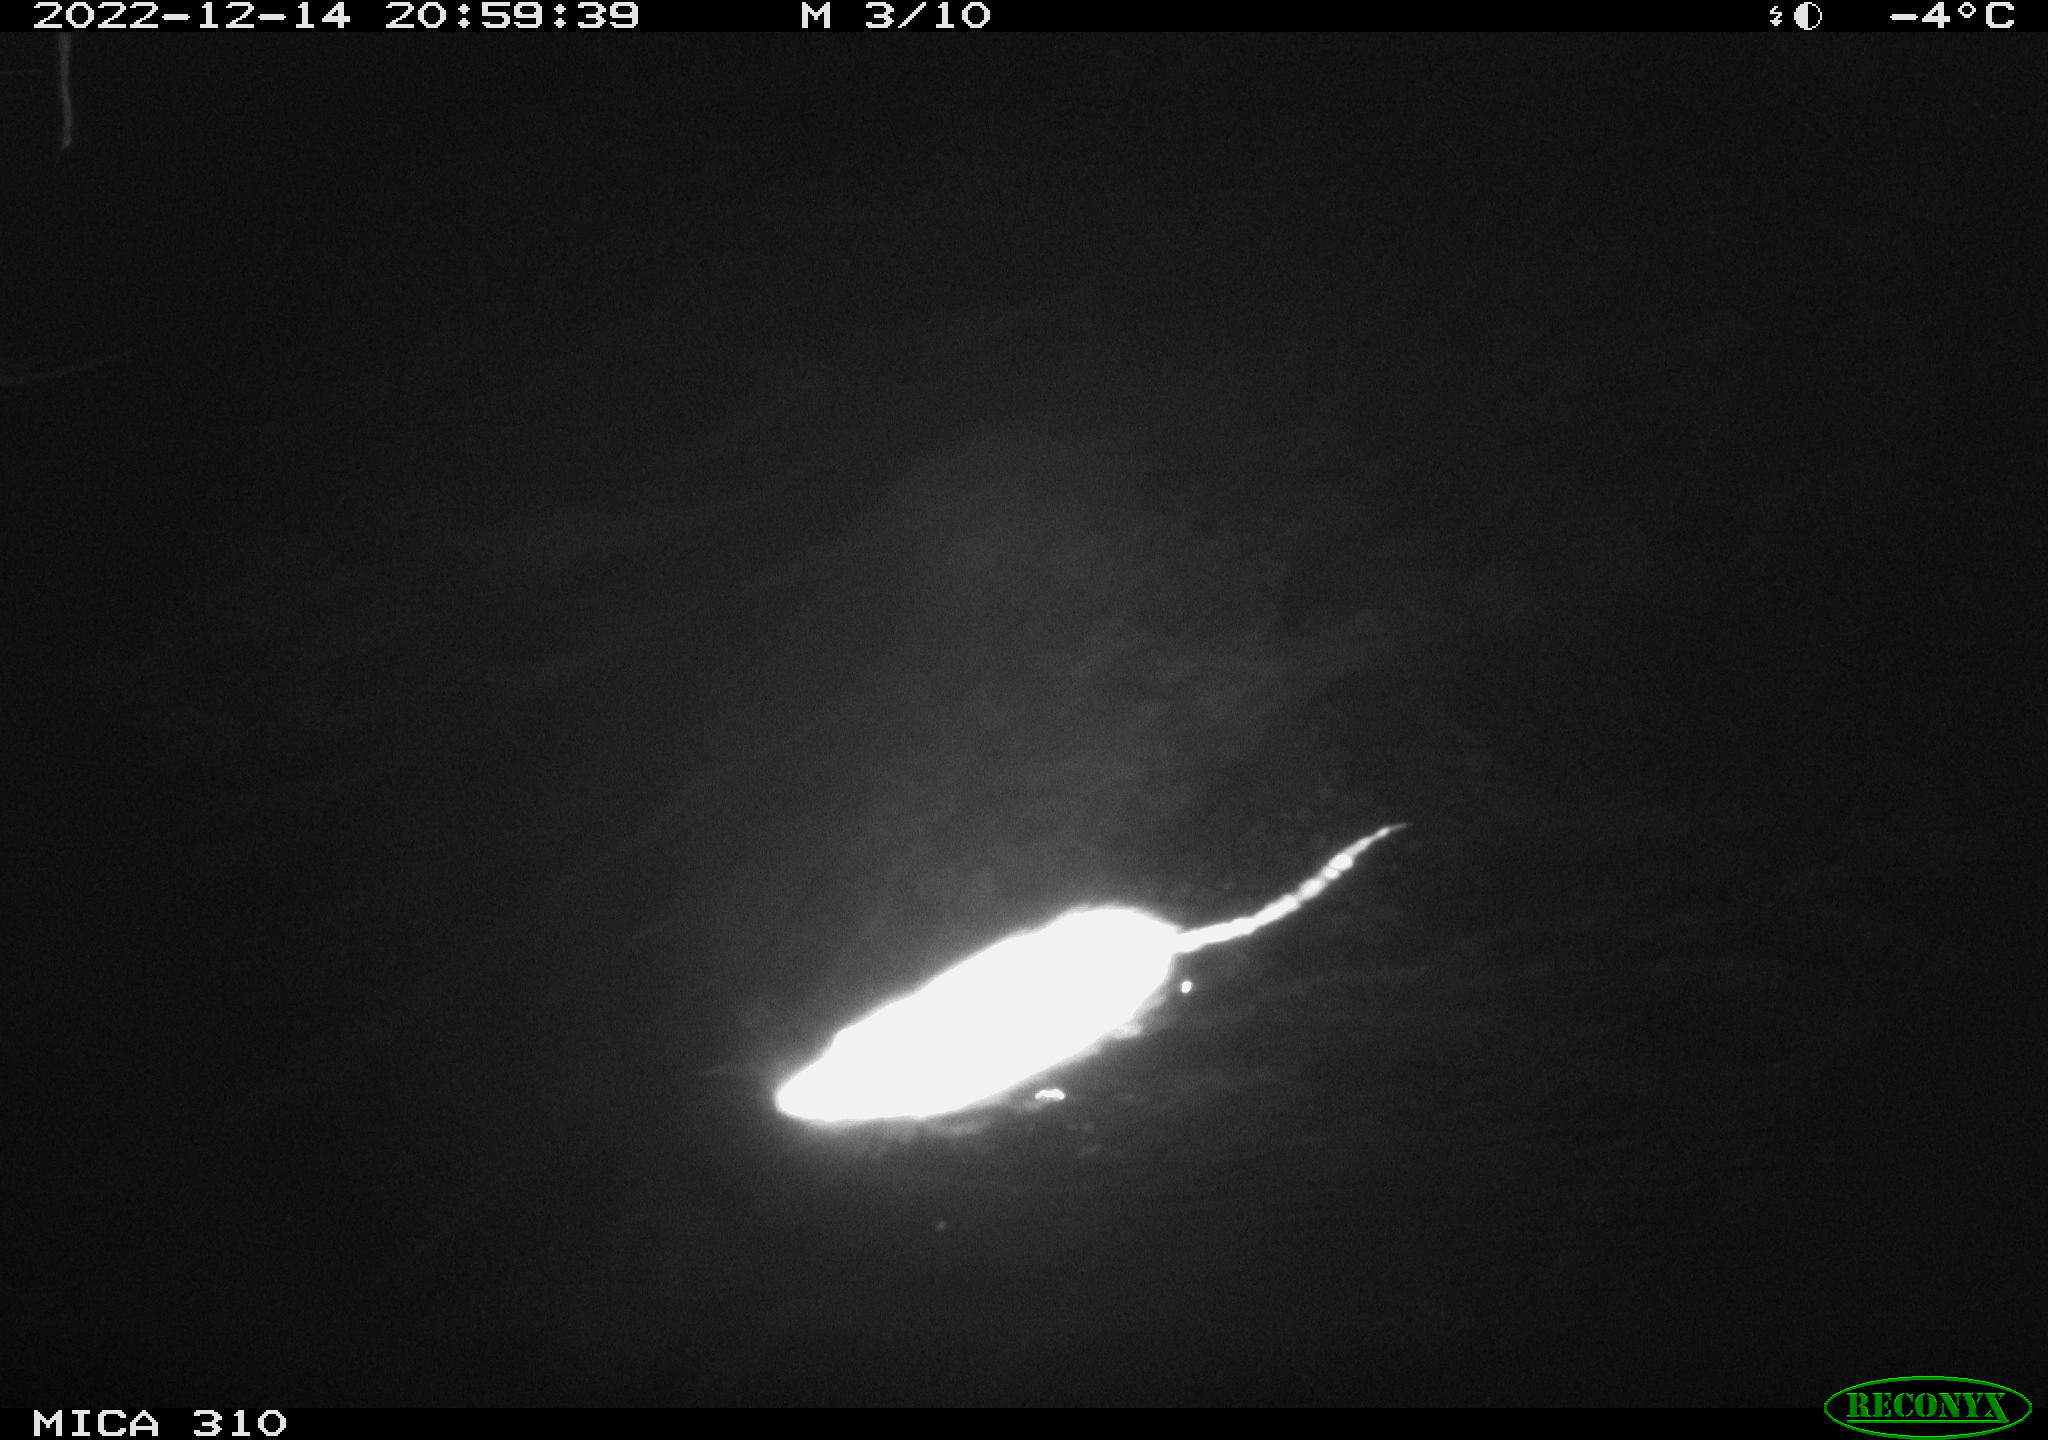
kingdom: Animalia
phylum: Chordata
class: Mammalia
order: Rodentia
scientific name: Rodentia
